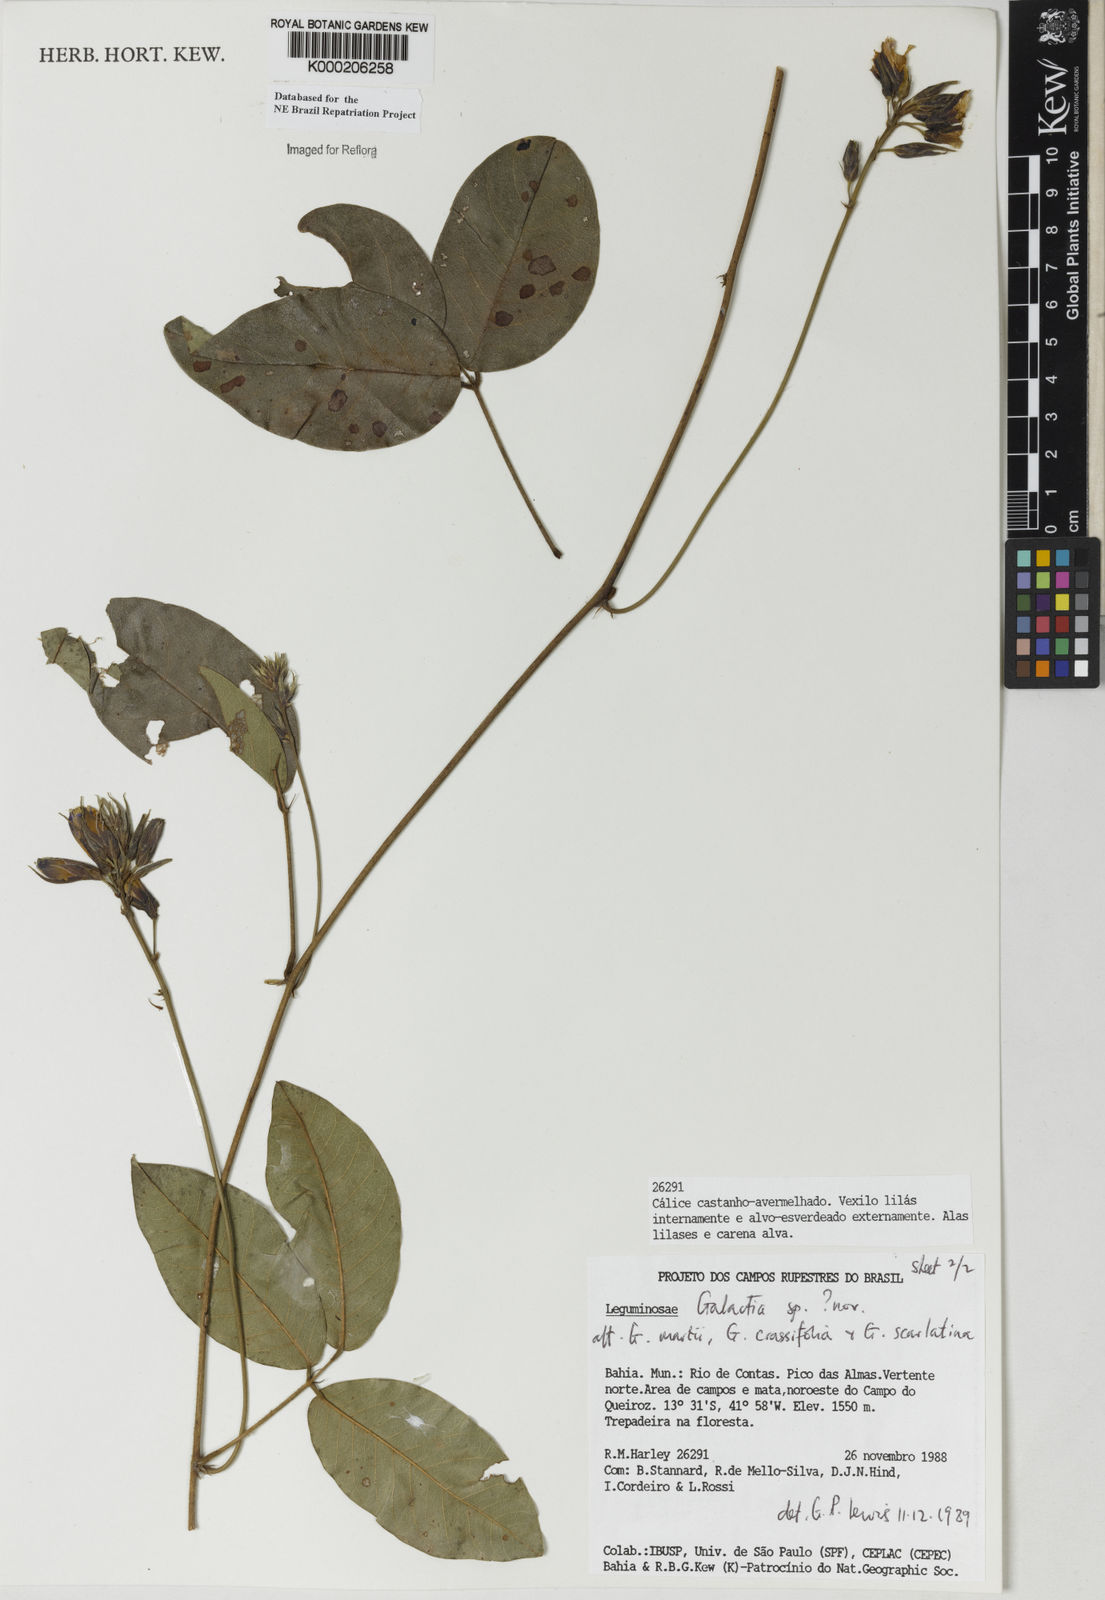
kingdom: Plantae
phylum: Tracheophyta
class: Magnoliopsida
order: Fabales
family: Fabaceae
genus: Galactia
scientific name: Galactia
